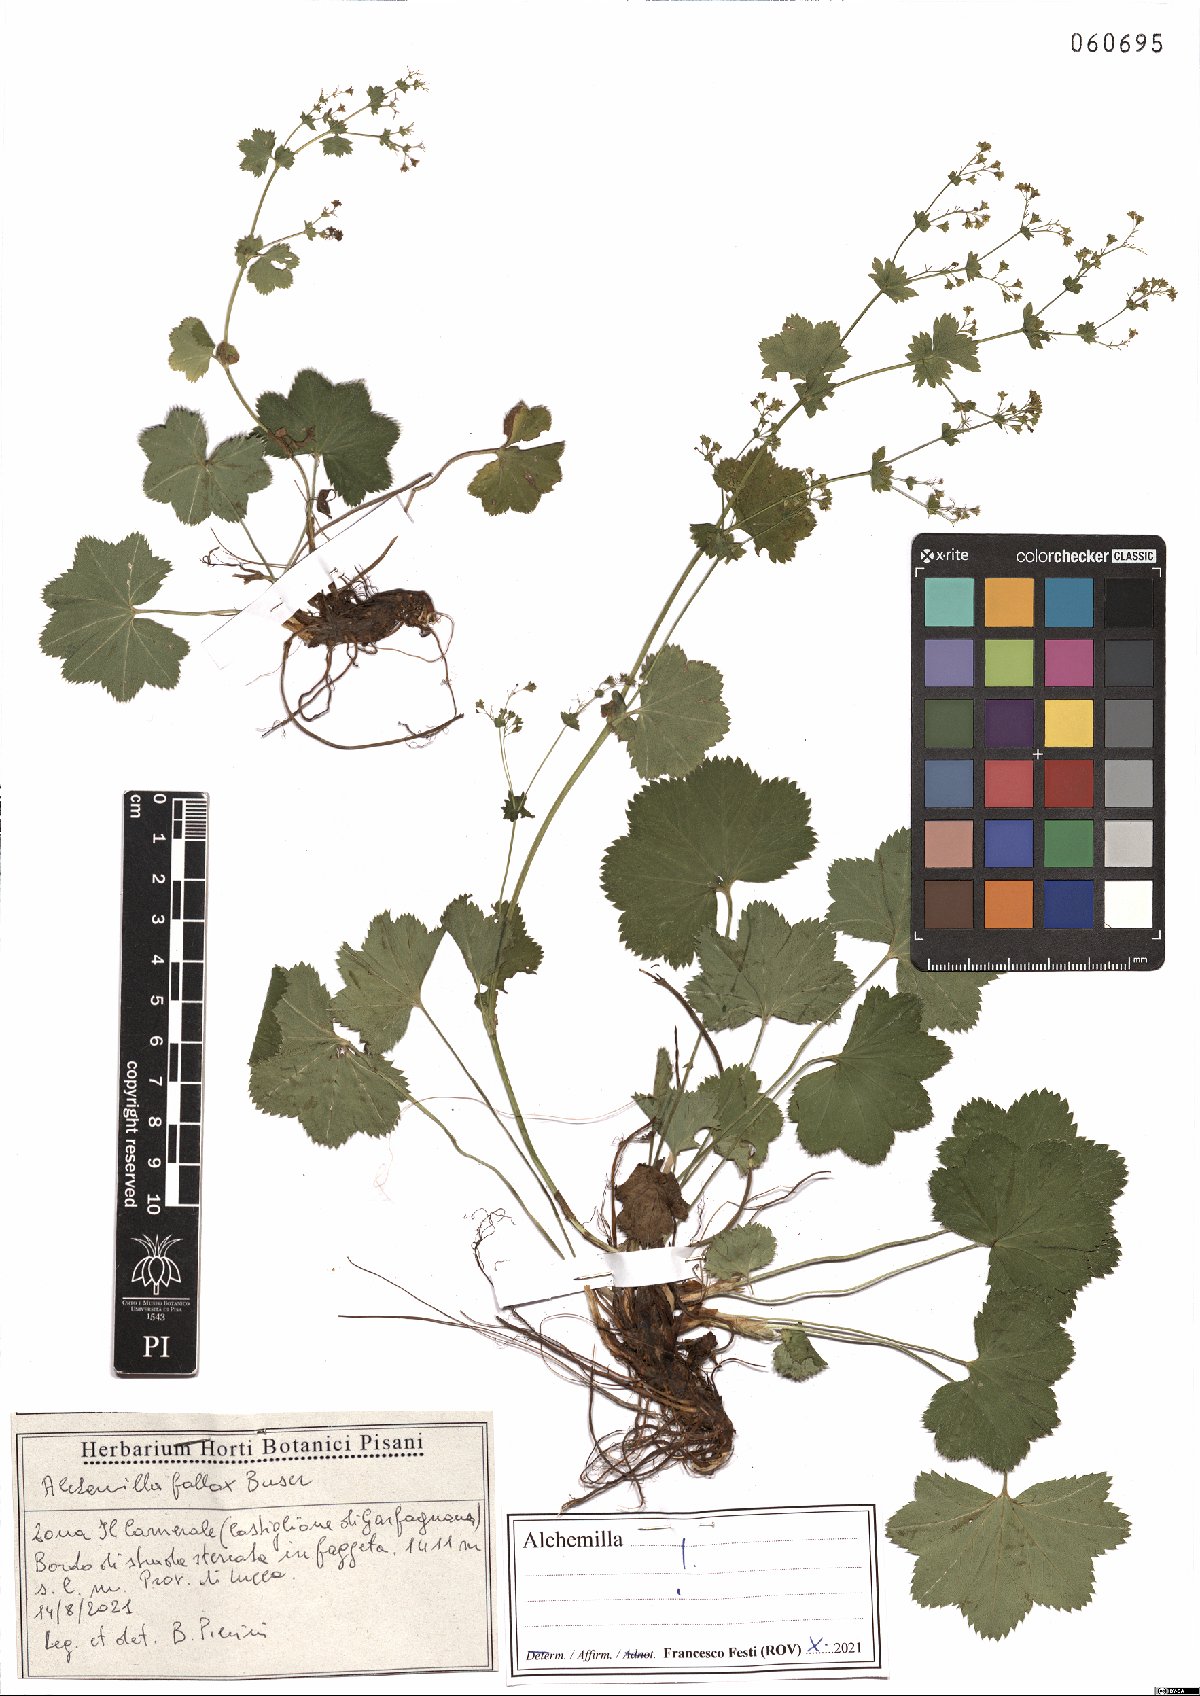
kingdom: Plantae
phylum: Tracheophyta
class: Magnoliopsida
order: Rosales
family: Rosaceae
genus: Alchemilla
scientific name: Alchemilla fallax
